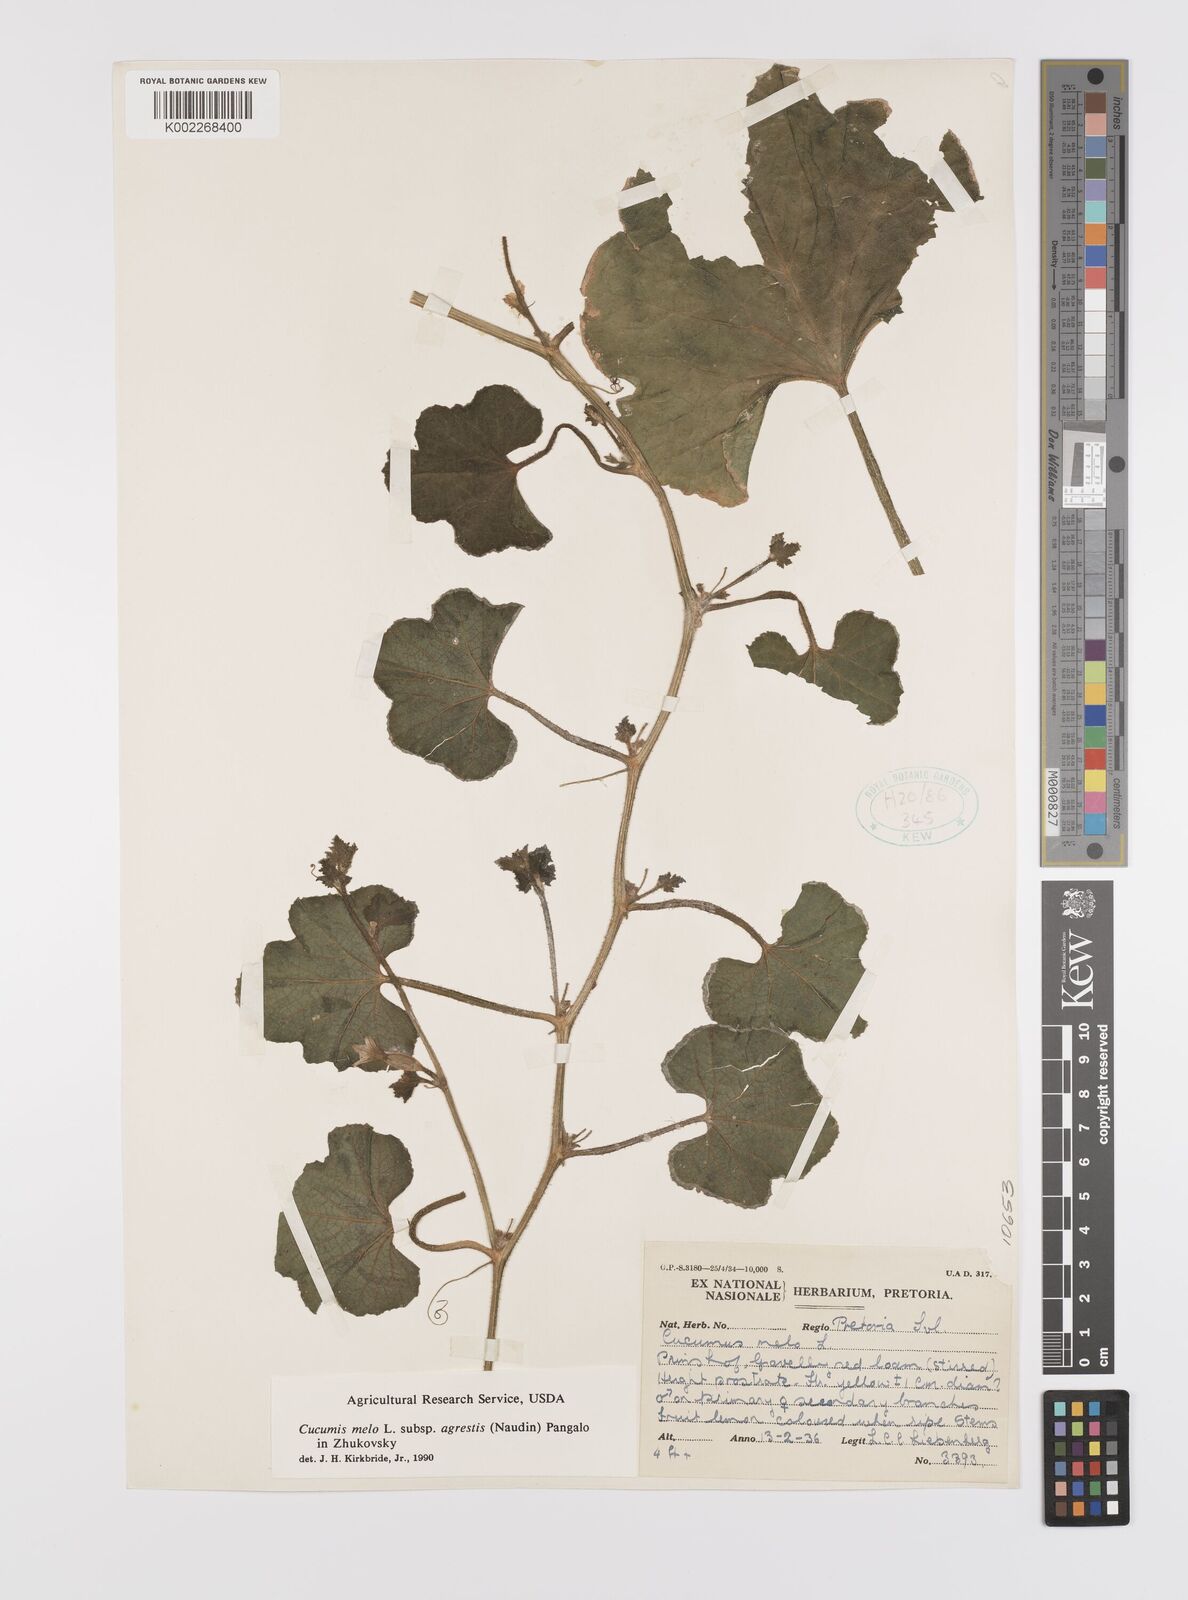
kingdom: Plantae
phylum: Tracheophyta
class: Magnoliopsida
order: Cucurbitales
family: Cucurbitaceae
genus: Cucumis
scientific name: Cucumis melo
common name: Melon
